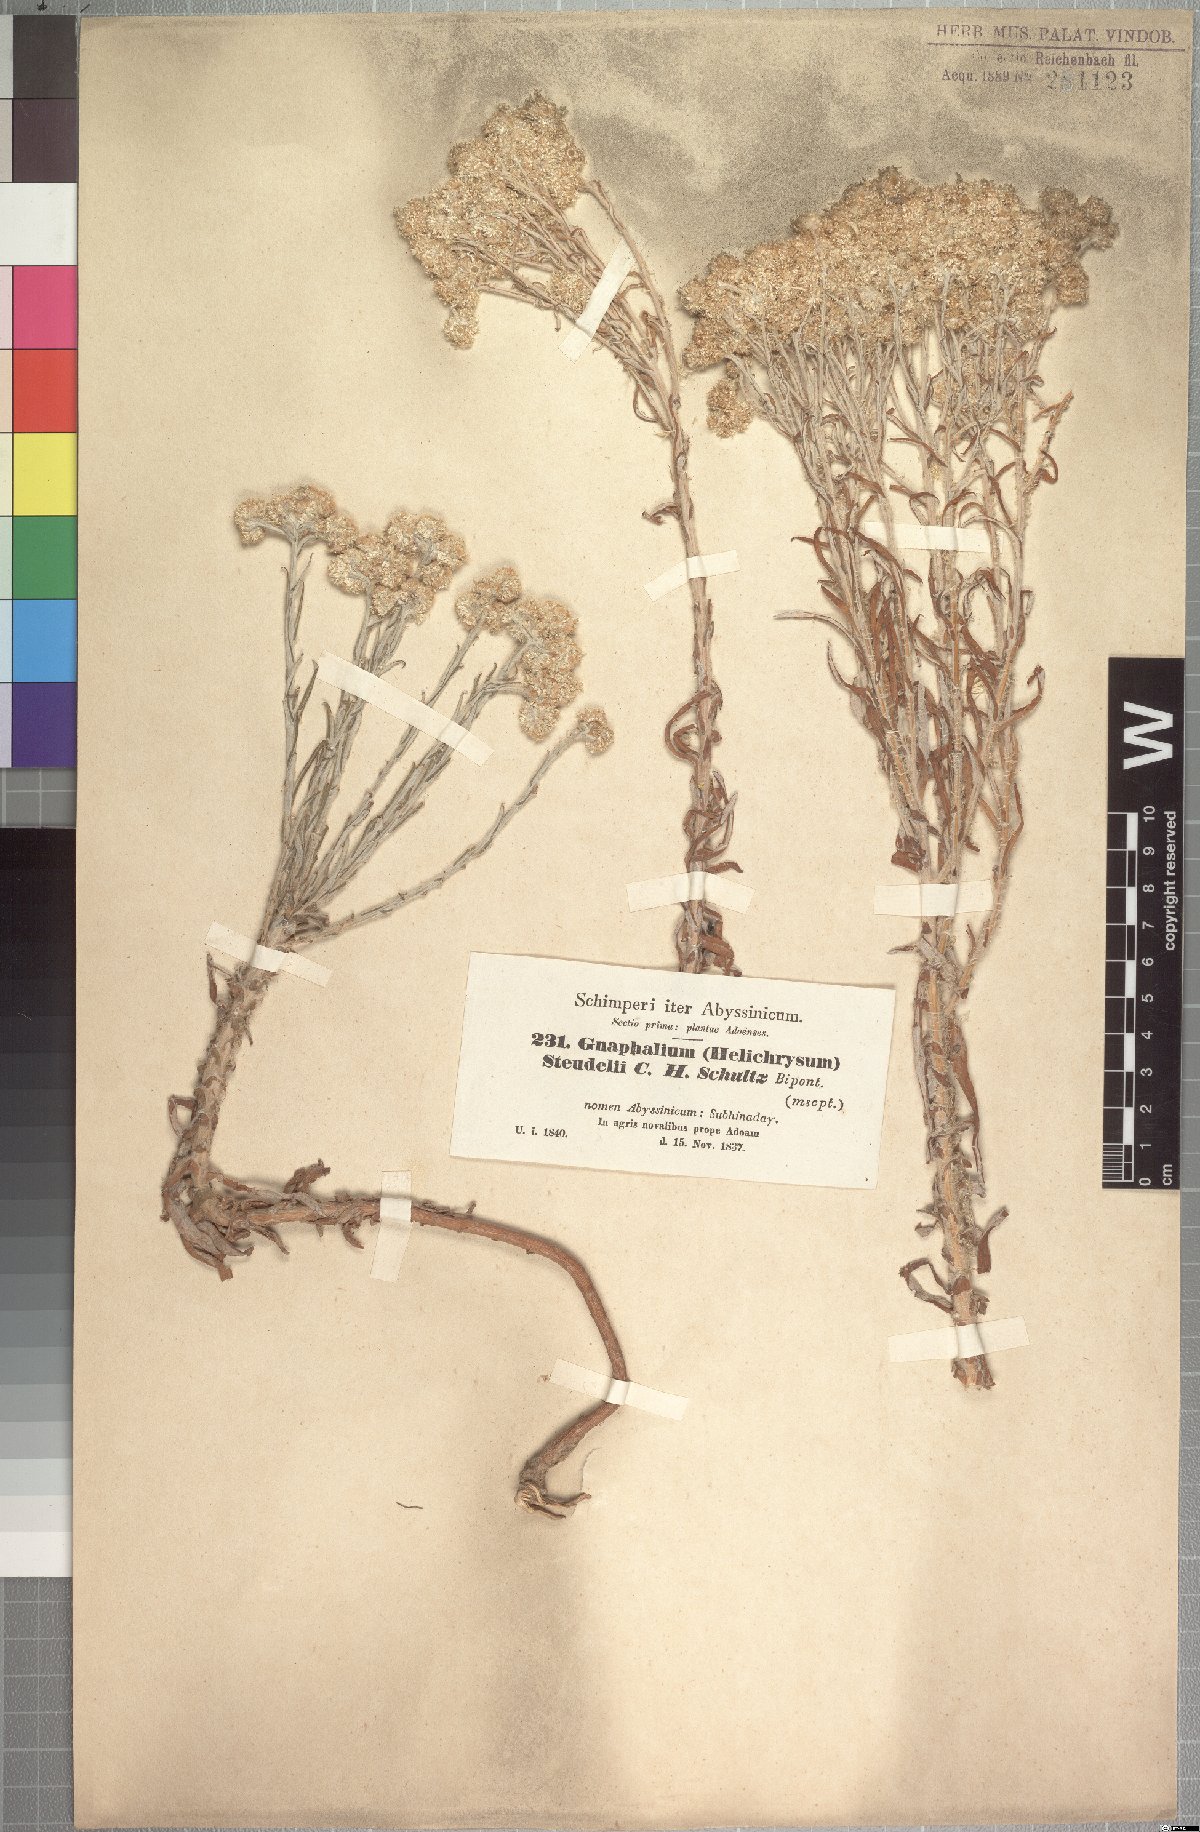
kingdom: Plantae
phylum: Tracheophyta
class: Magnoliopsida
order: Asterales
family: Asteraceae
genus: Pseudognaphalium
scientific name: Pseudognaphalium oligandrum
